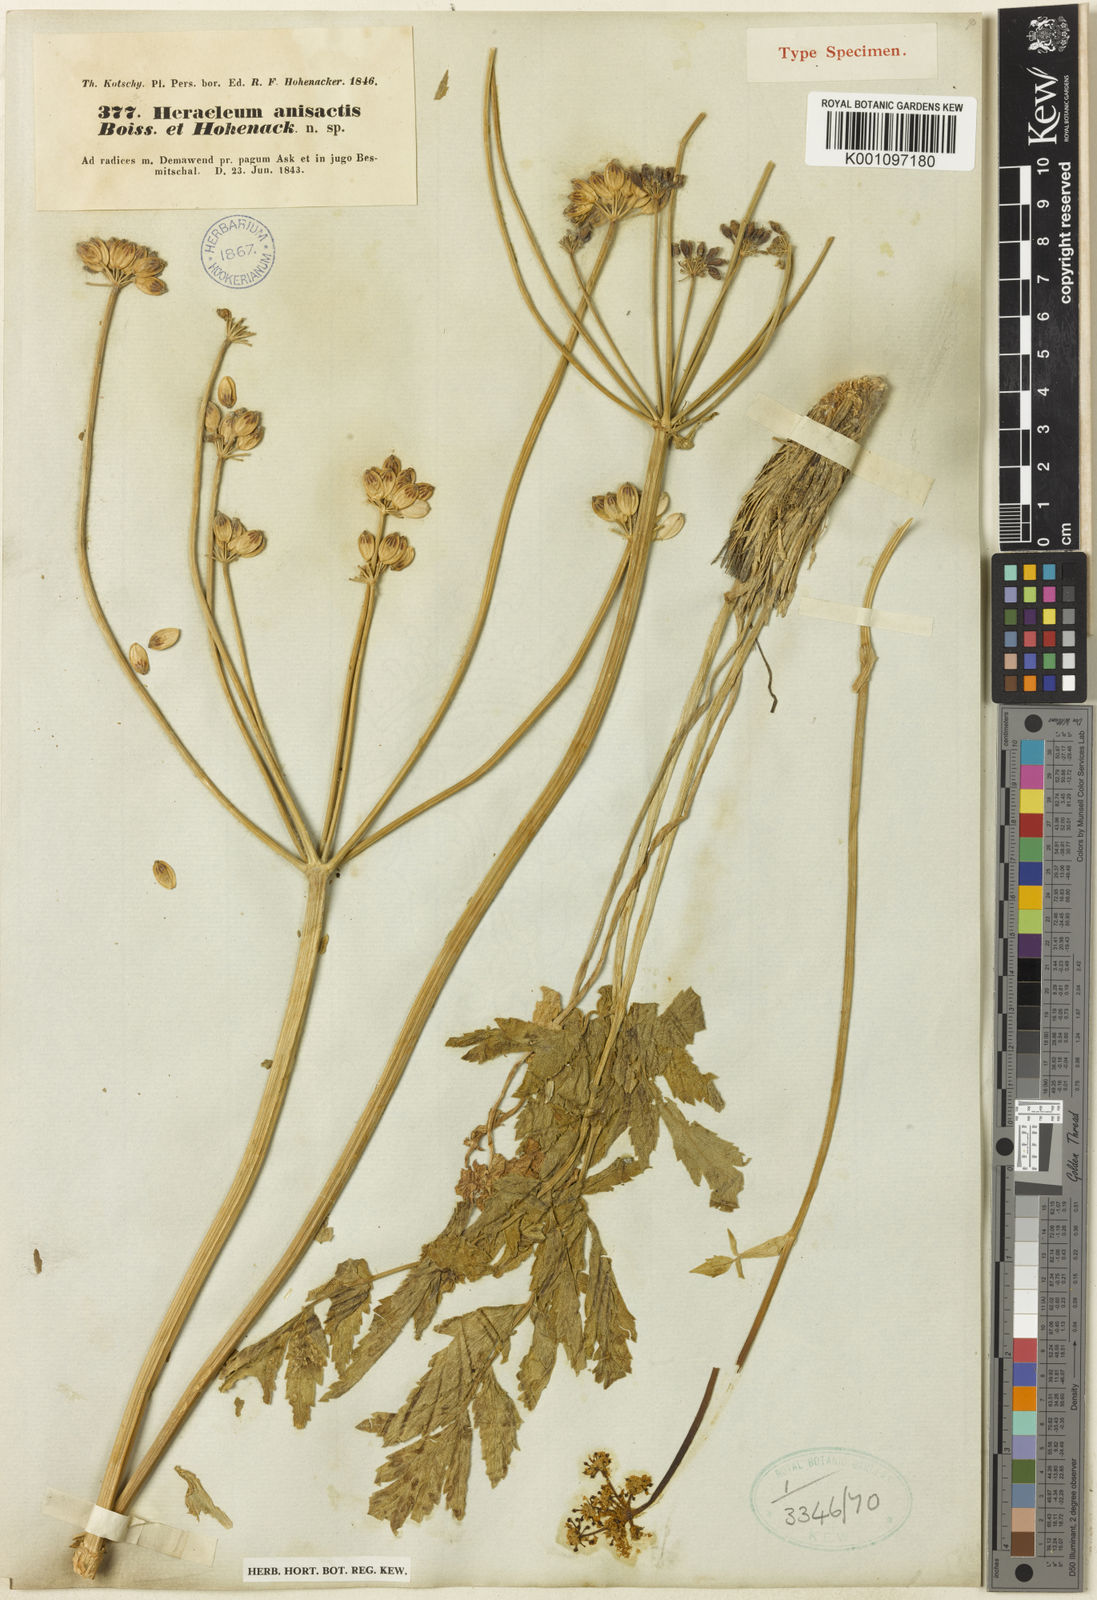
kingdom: Plantae
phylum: Tracheophyta
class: Magnoliopsida
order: Apiales
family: Apiaceae
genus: Heracleum
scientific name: Heracleum anisactis
